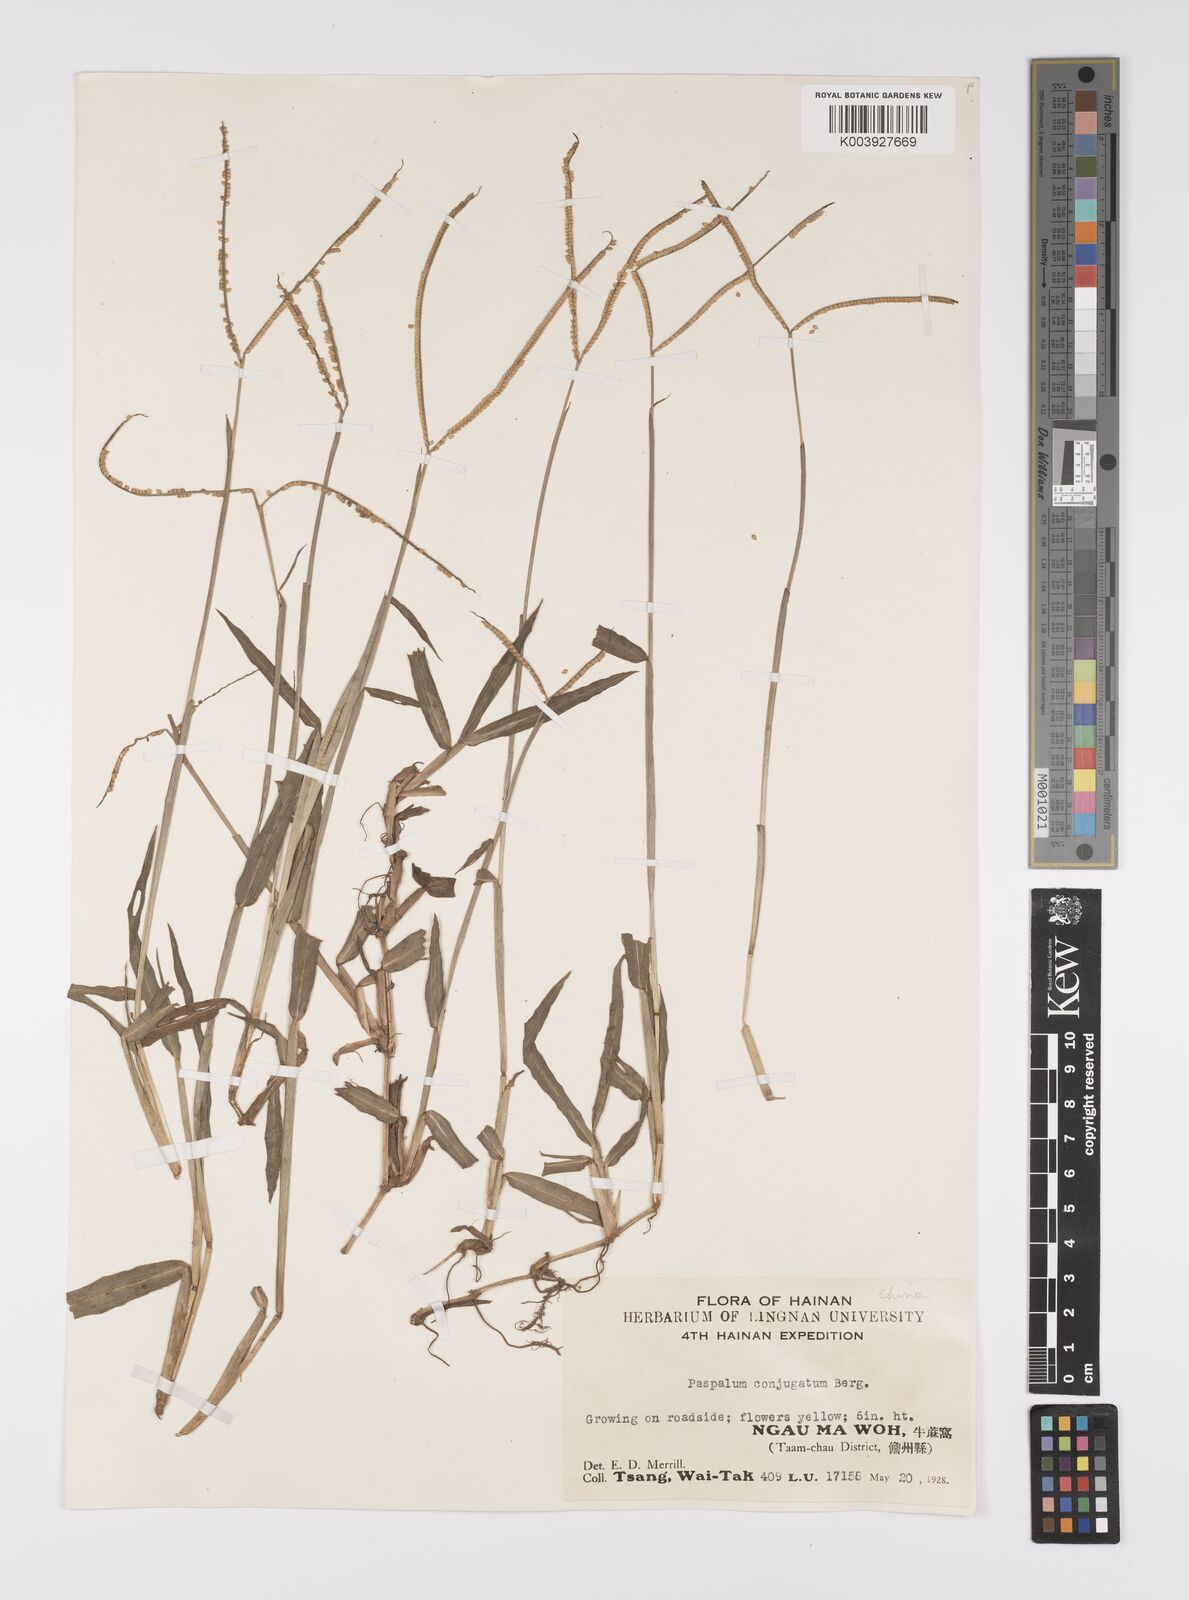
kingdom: Plantae
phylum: Tracheophyta
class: Liliopsida
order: Poales
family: Poaceae
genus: Paspalum
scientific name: Paspalum conjugatum
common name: Hilograss
